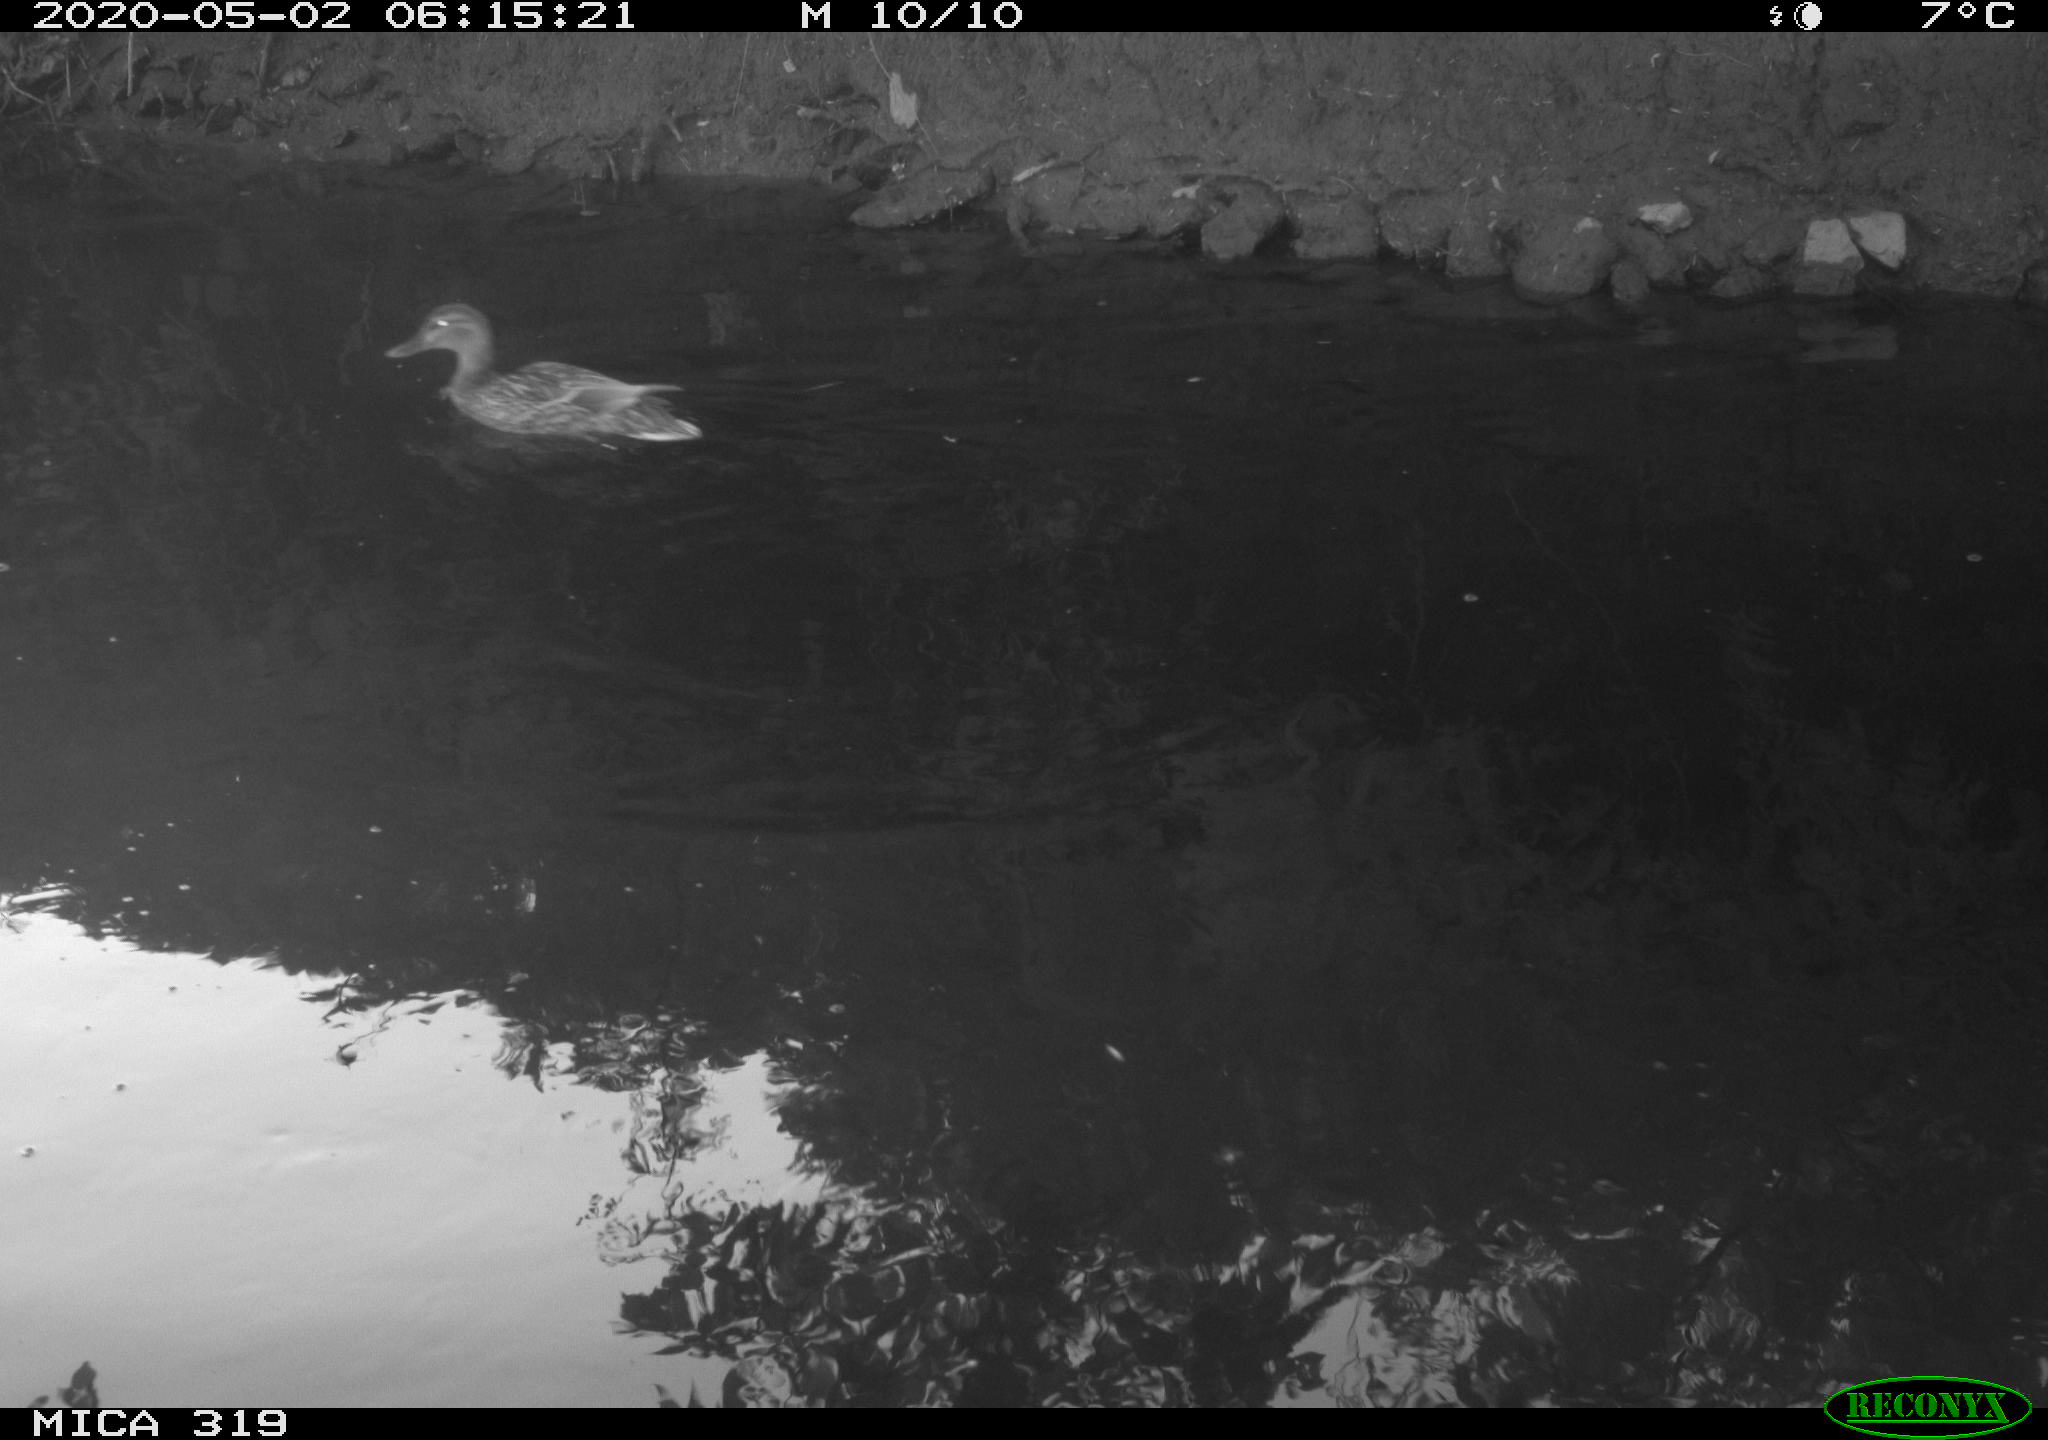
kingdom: Animalia
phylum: Chordata
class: Aves
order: Anseriformes
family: Anatidae
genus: Anas
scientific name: Anas platyrhynchos
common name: Mallard
